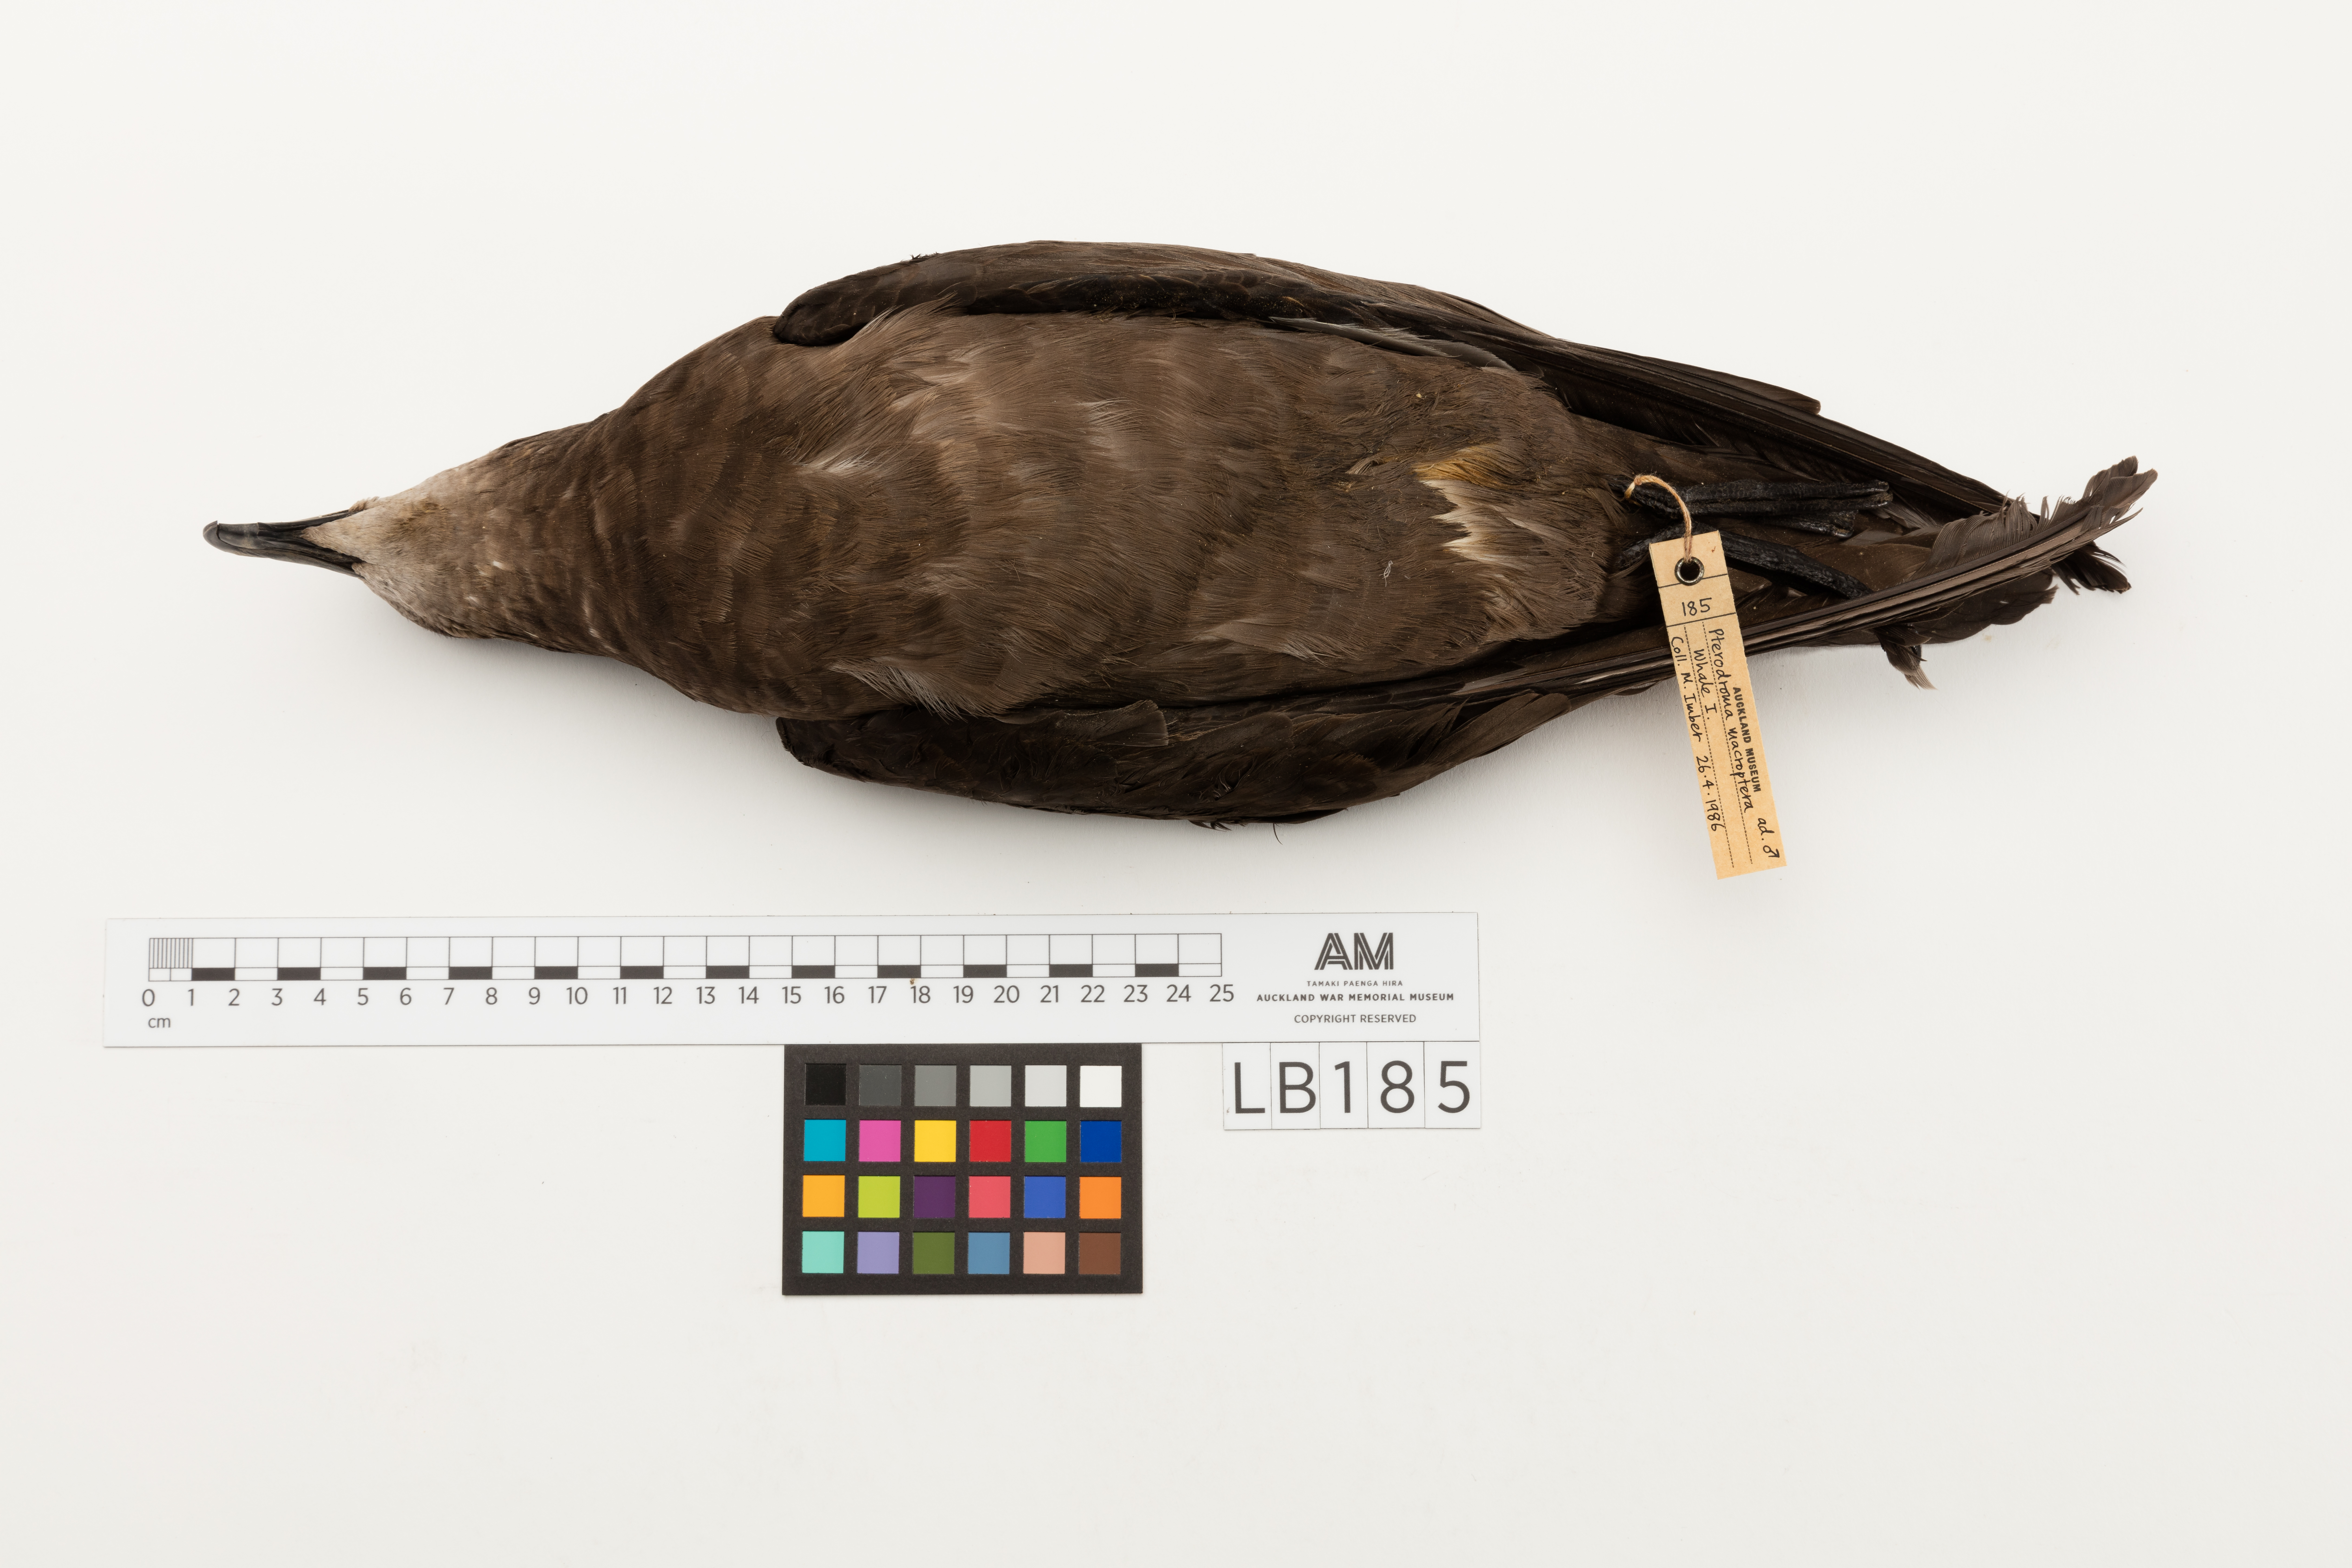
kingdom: Animalia
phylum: Chordata
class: Aves
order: Procellariiformes
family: Procellariidae
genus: Pterodroma
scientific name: Pterodroma macroptera
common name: Great-winged petrel
